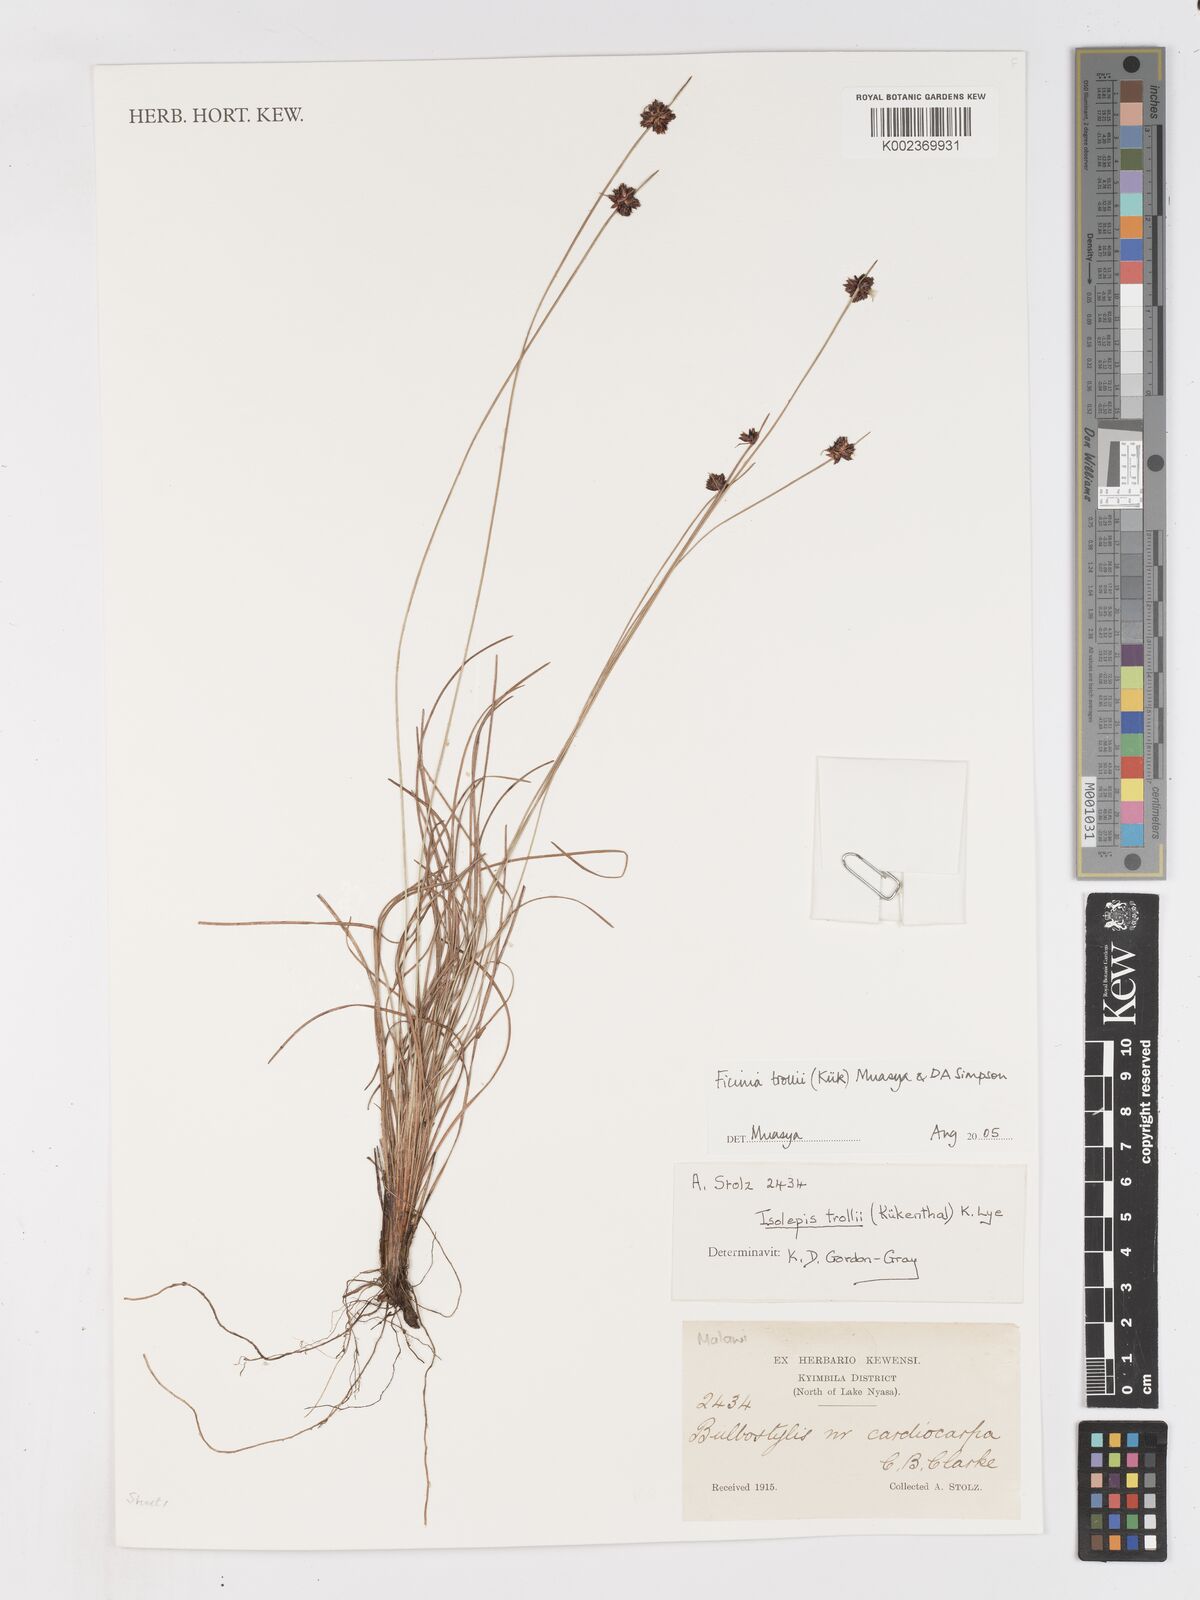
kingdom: Plantae
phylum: Tracheophyta
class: Liliopsida
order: Poales
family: Cyperaceae
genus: Ficinia
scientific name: Ficinia trollii
